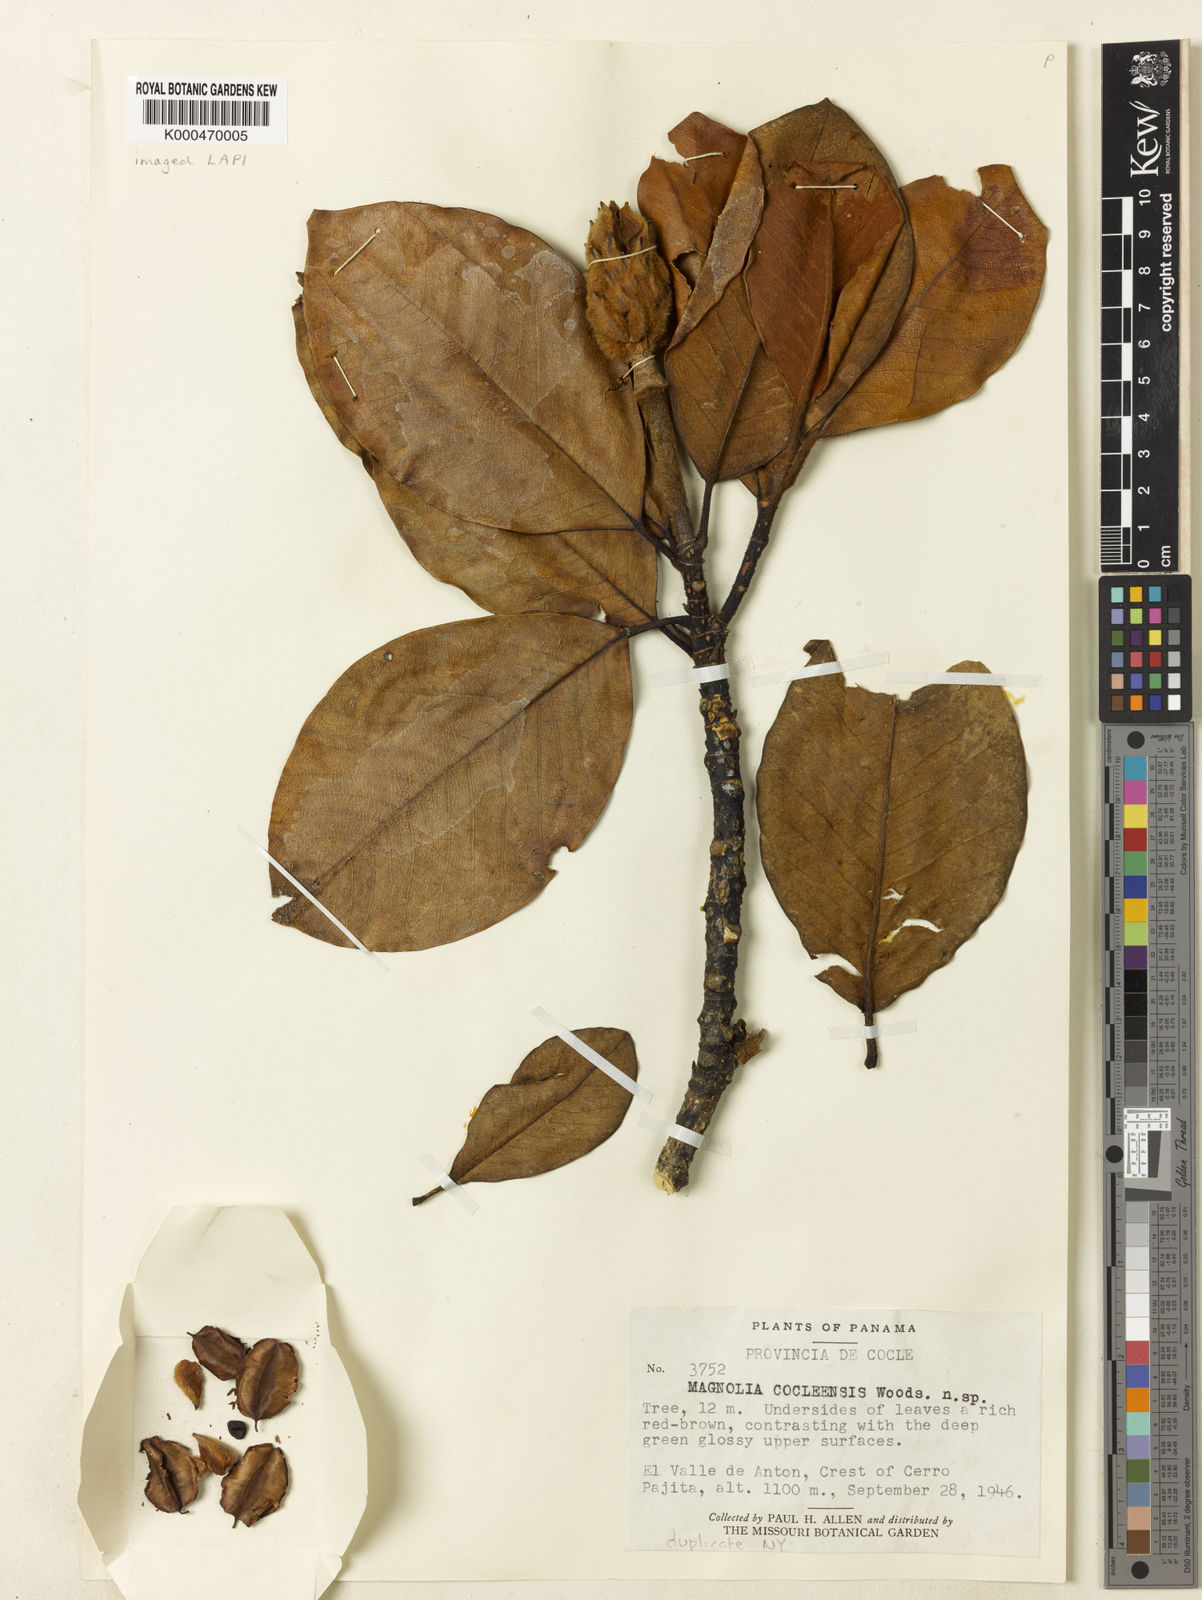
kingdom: Plantae
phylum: Tracheophyta
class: Magnoliopsida
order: Magnoliales
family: Magnoliaceae
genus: Magnolia
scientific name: Magnolia
